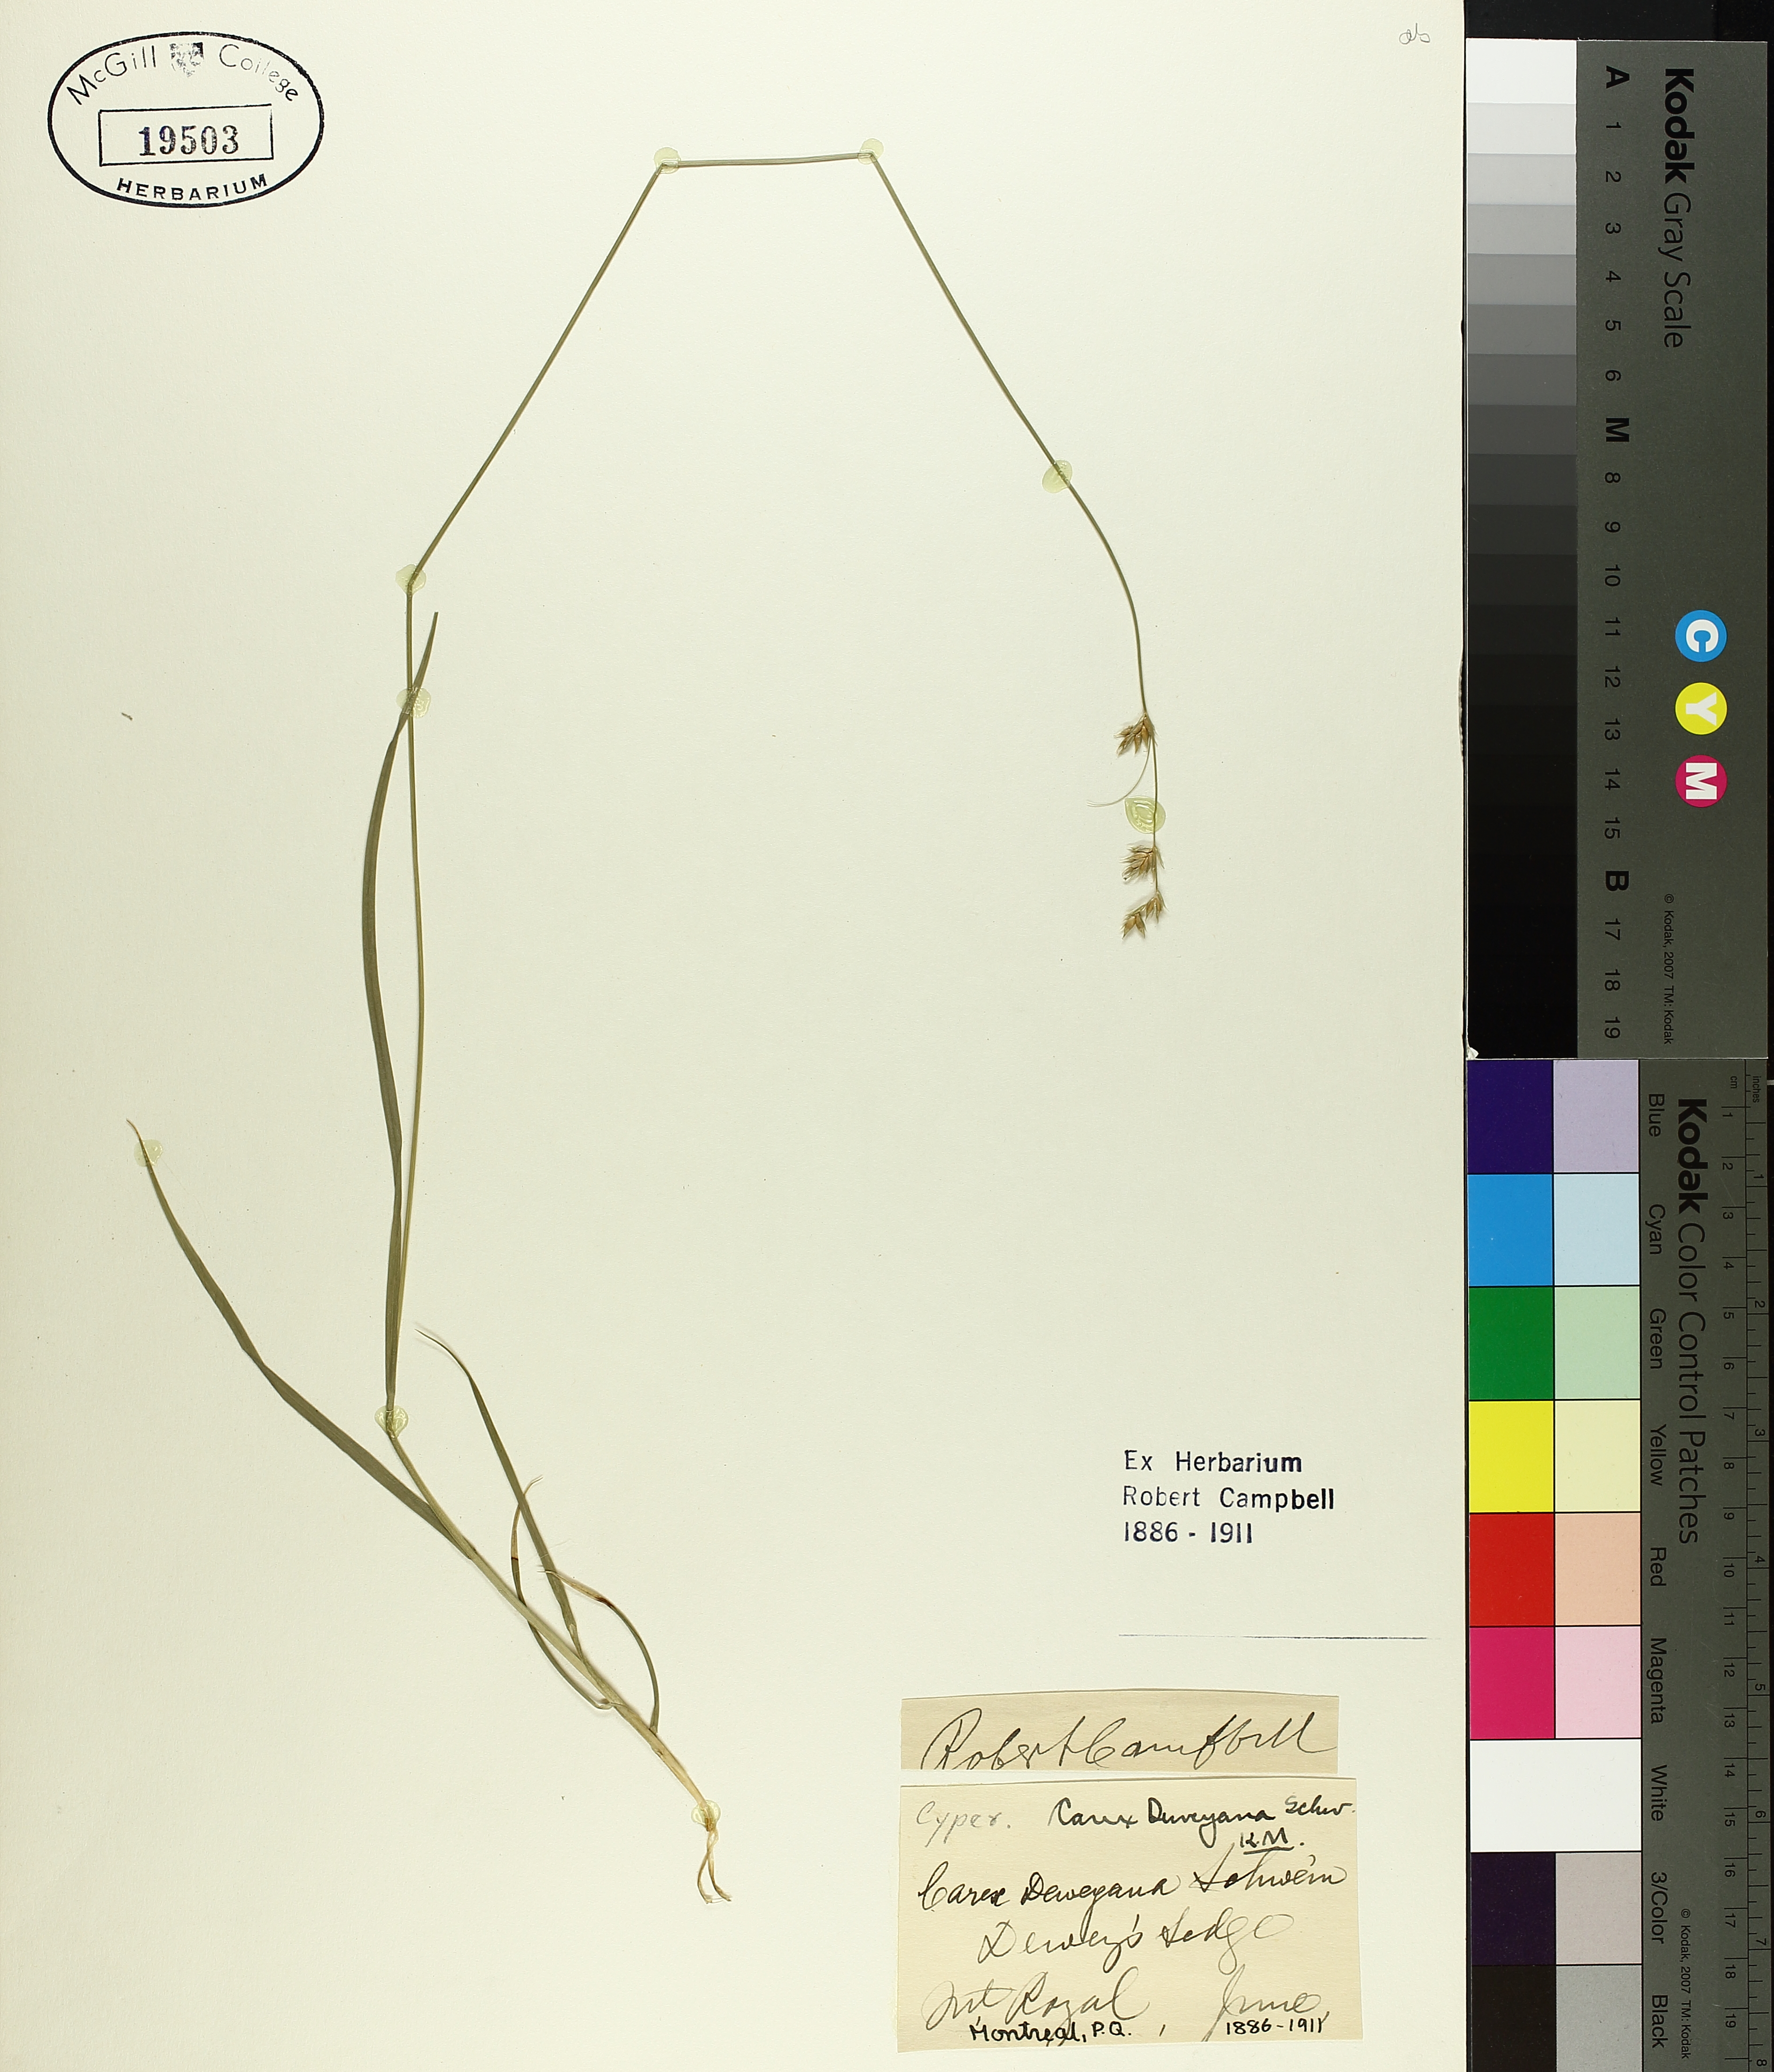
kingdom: Plantae
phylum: Tracheophyta
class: Liliopsida
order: Poales
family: Cyperaceae
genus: Carex
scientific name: Carex deweyana
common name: Dewey's sedge
